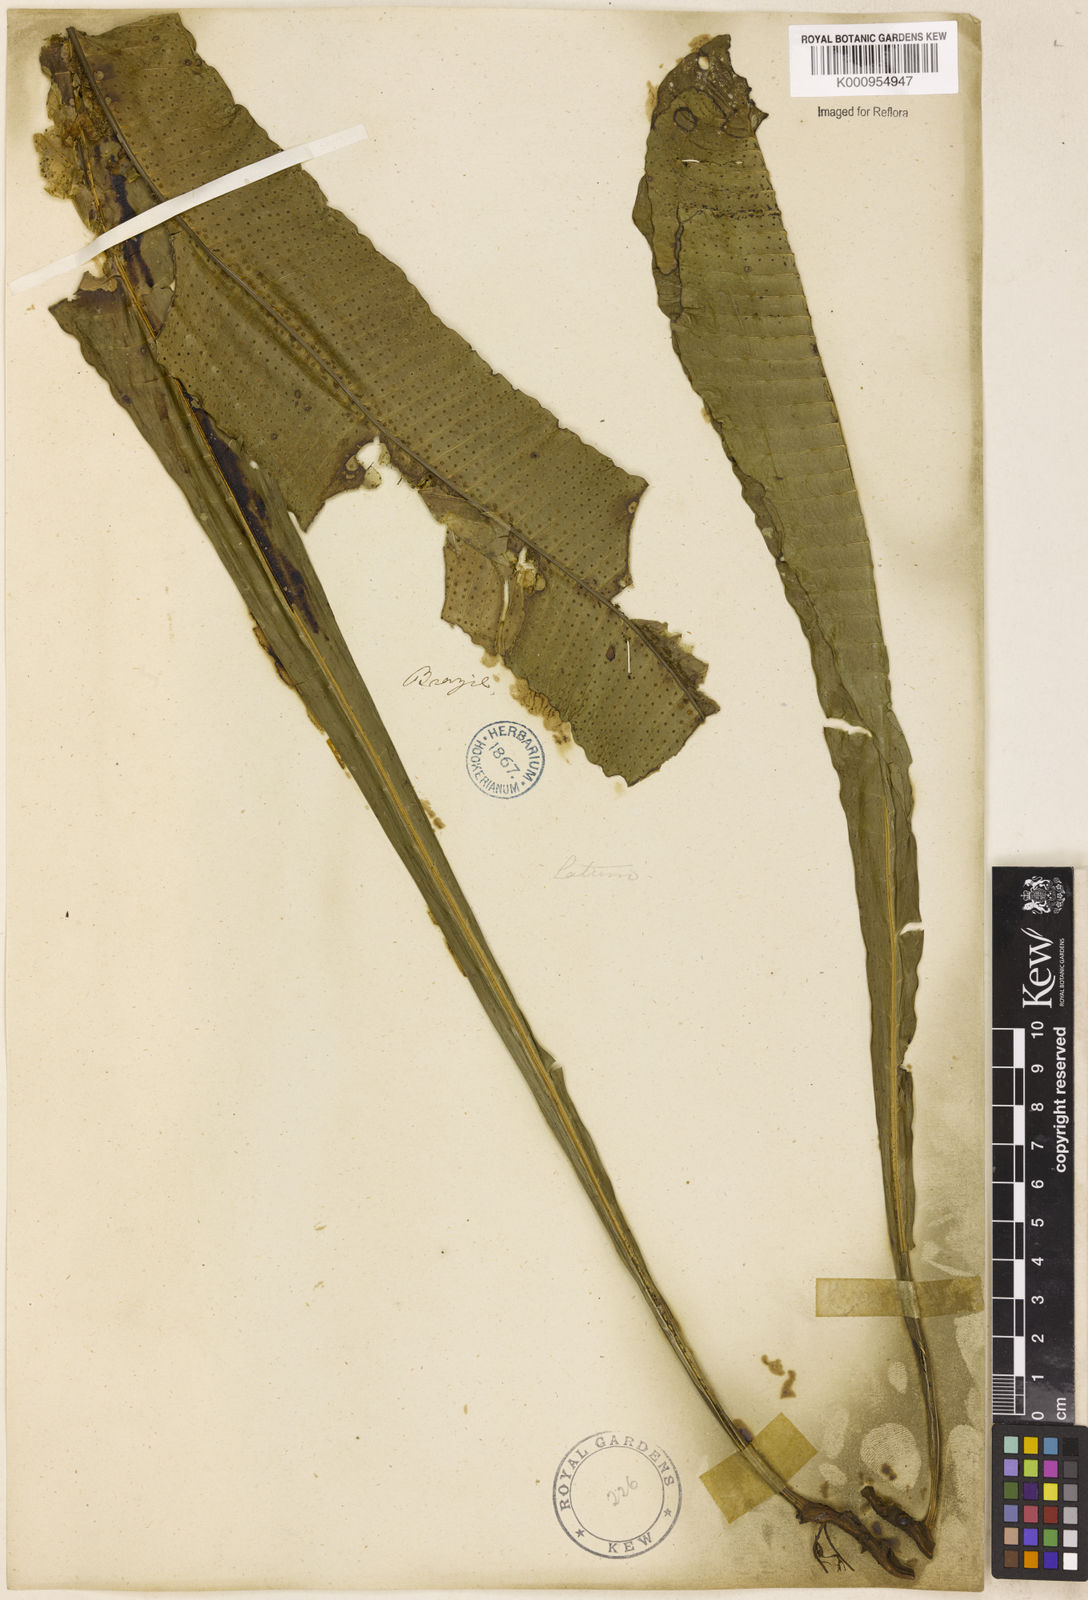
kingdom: Plantae
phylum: Tracheophyta
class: Polypodiopsida
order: Polypodiales
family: Polypodiaceae
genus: Campyloneurum
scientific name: Campyloneurum repens
